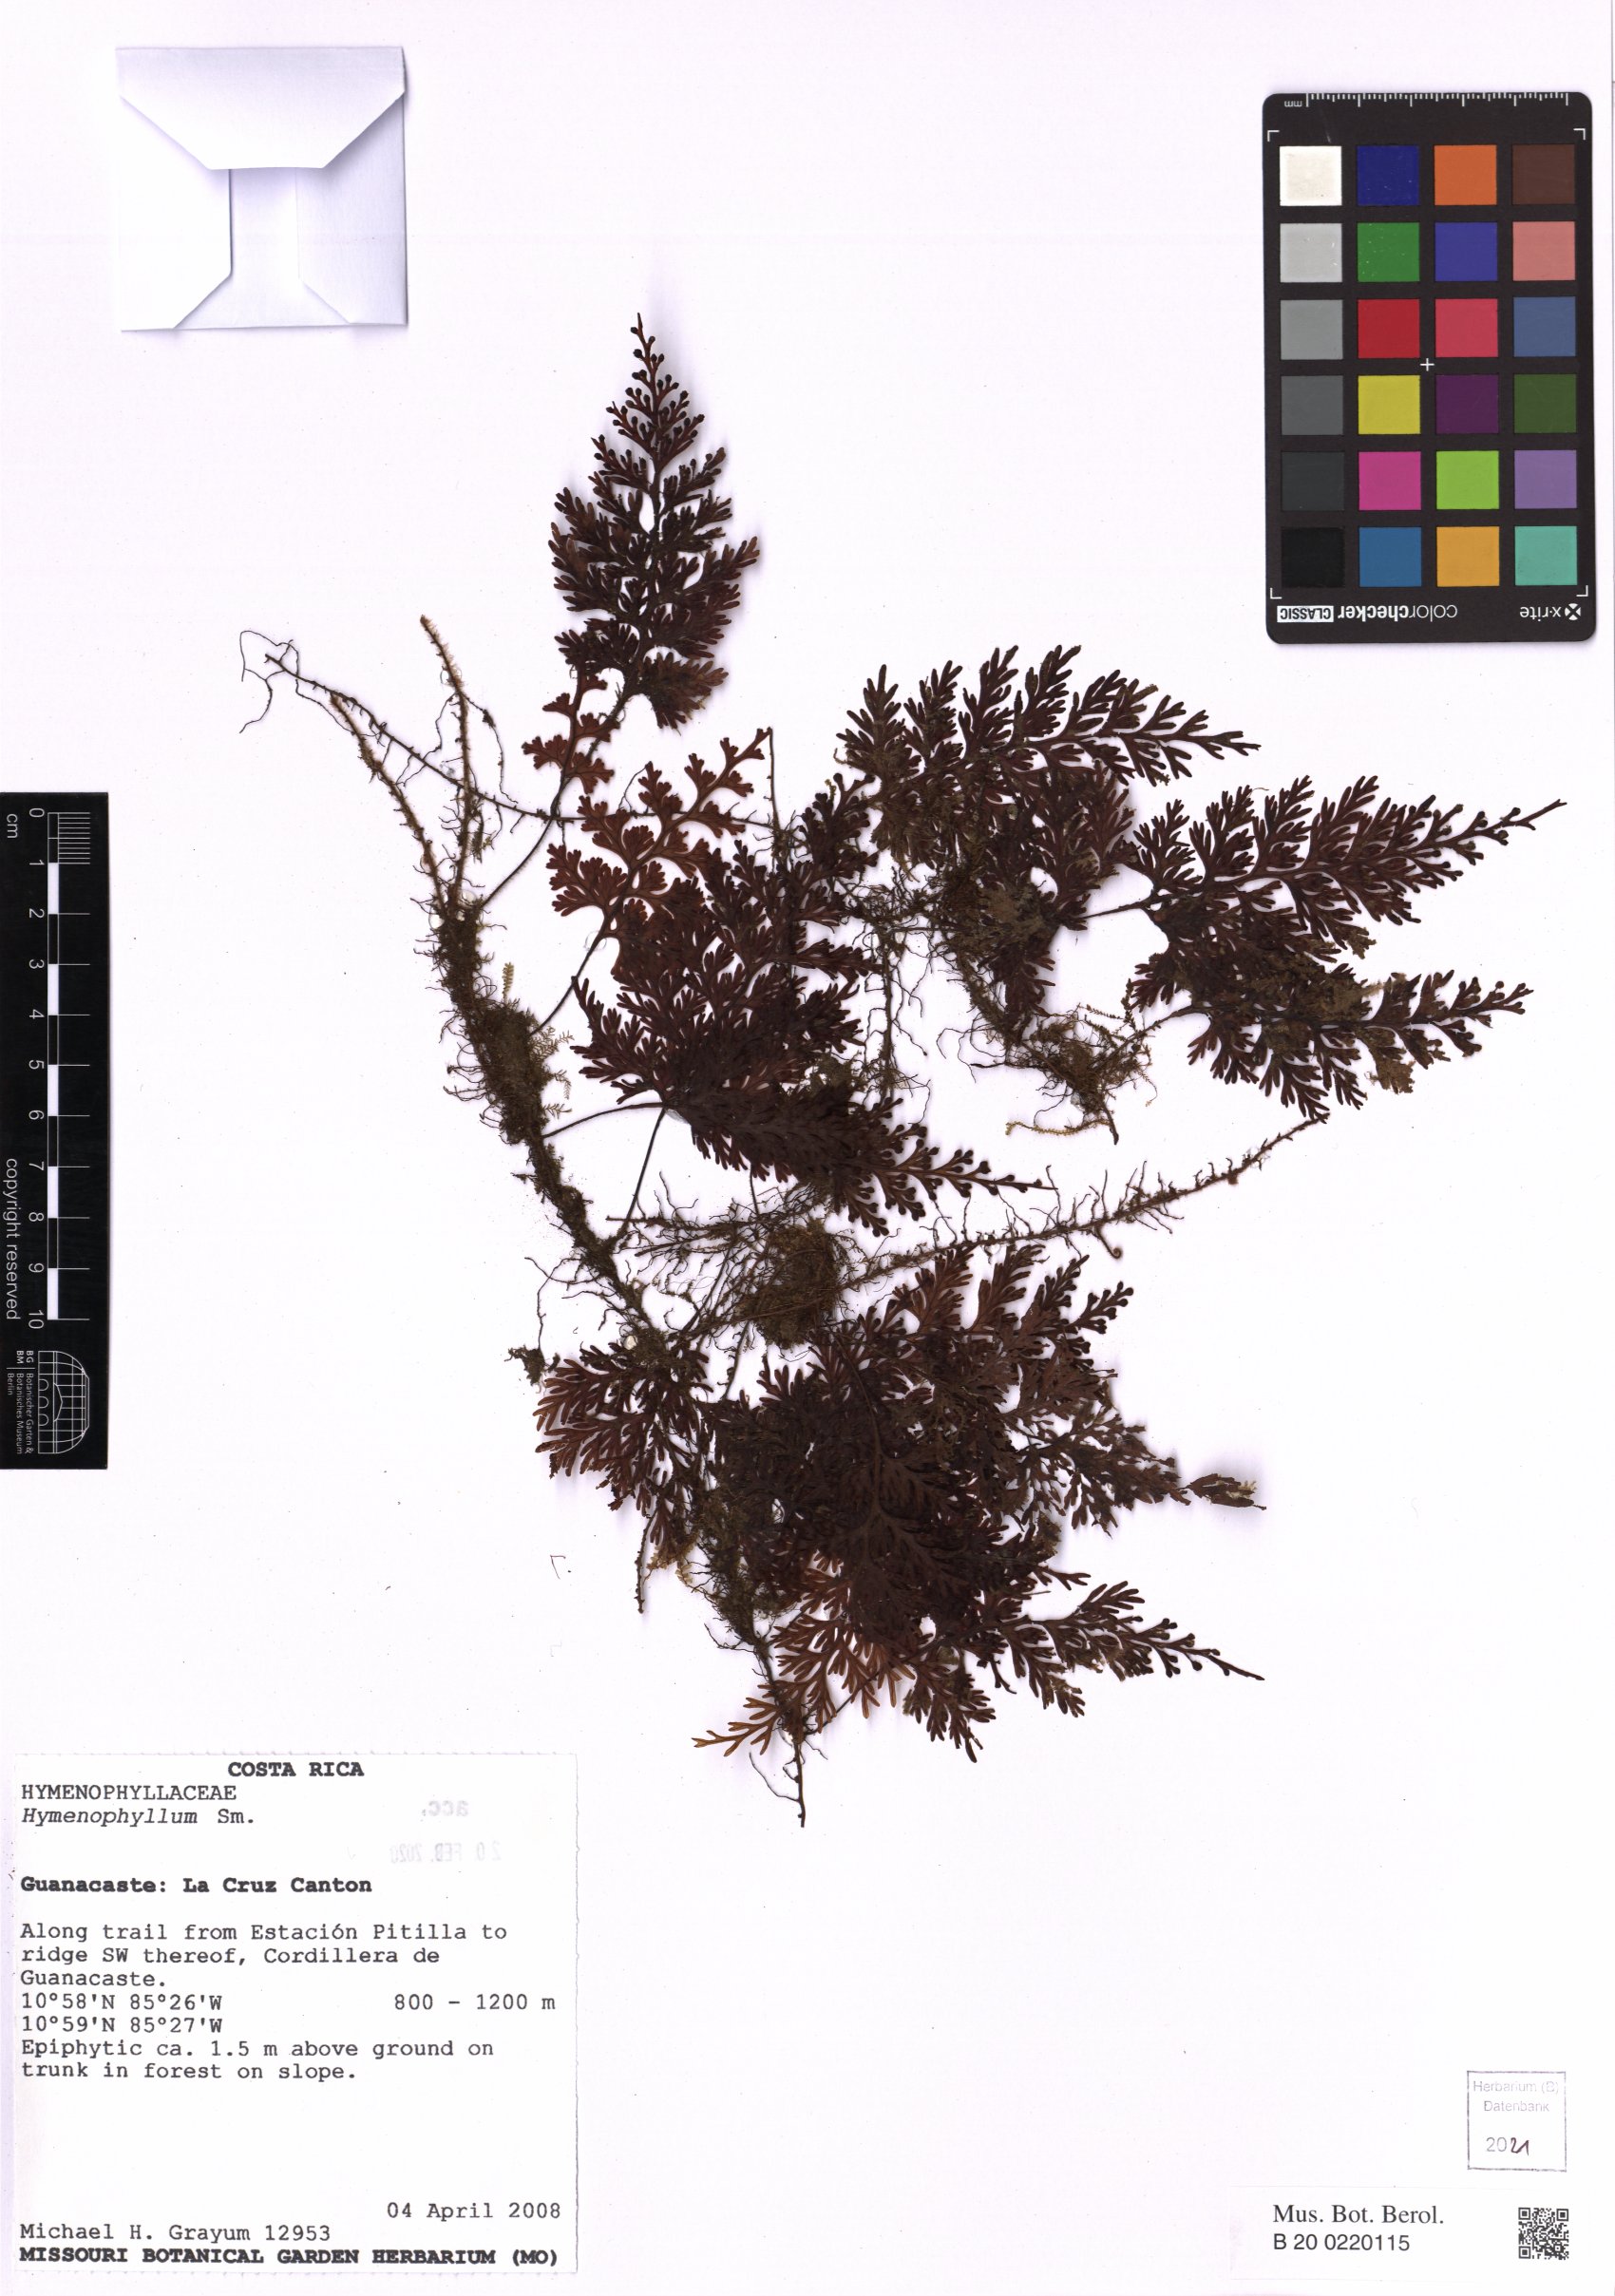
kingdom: Plantae
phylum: Tracheophyta
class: Polypodiopsida
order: Hymenophyllales
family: Hymenophyllaceae
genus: Hymenophyllum
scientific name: Hymenophyllum
